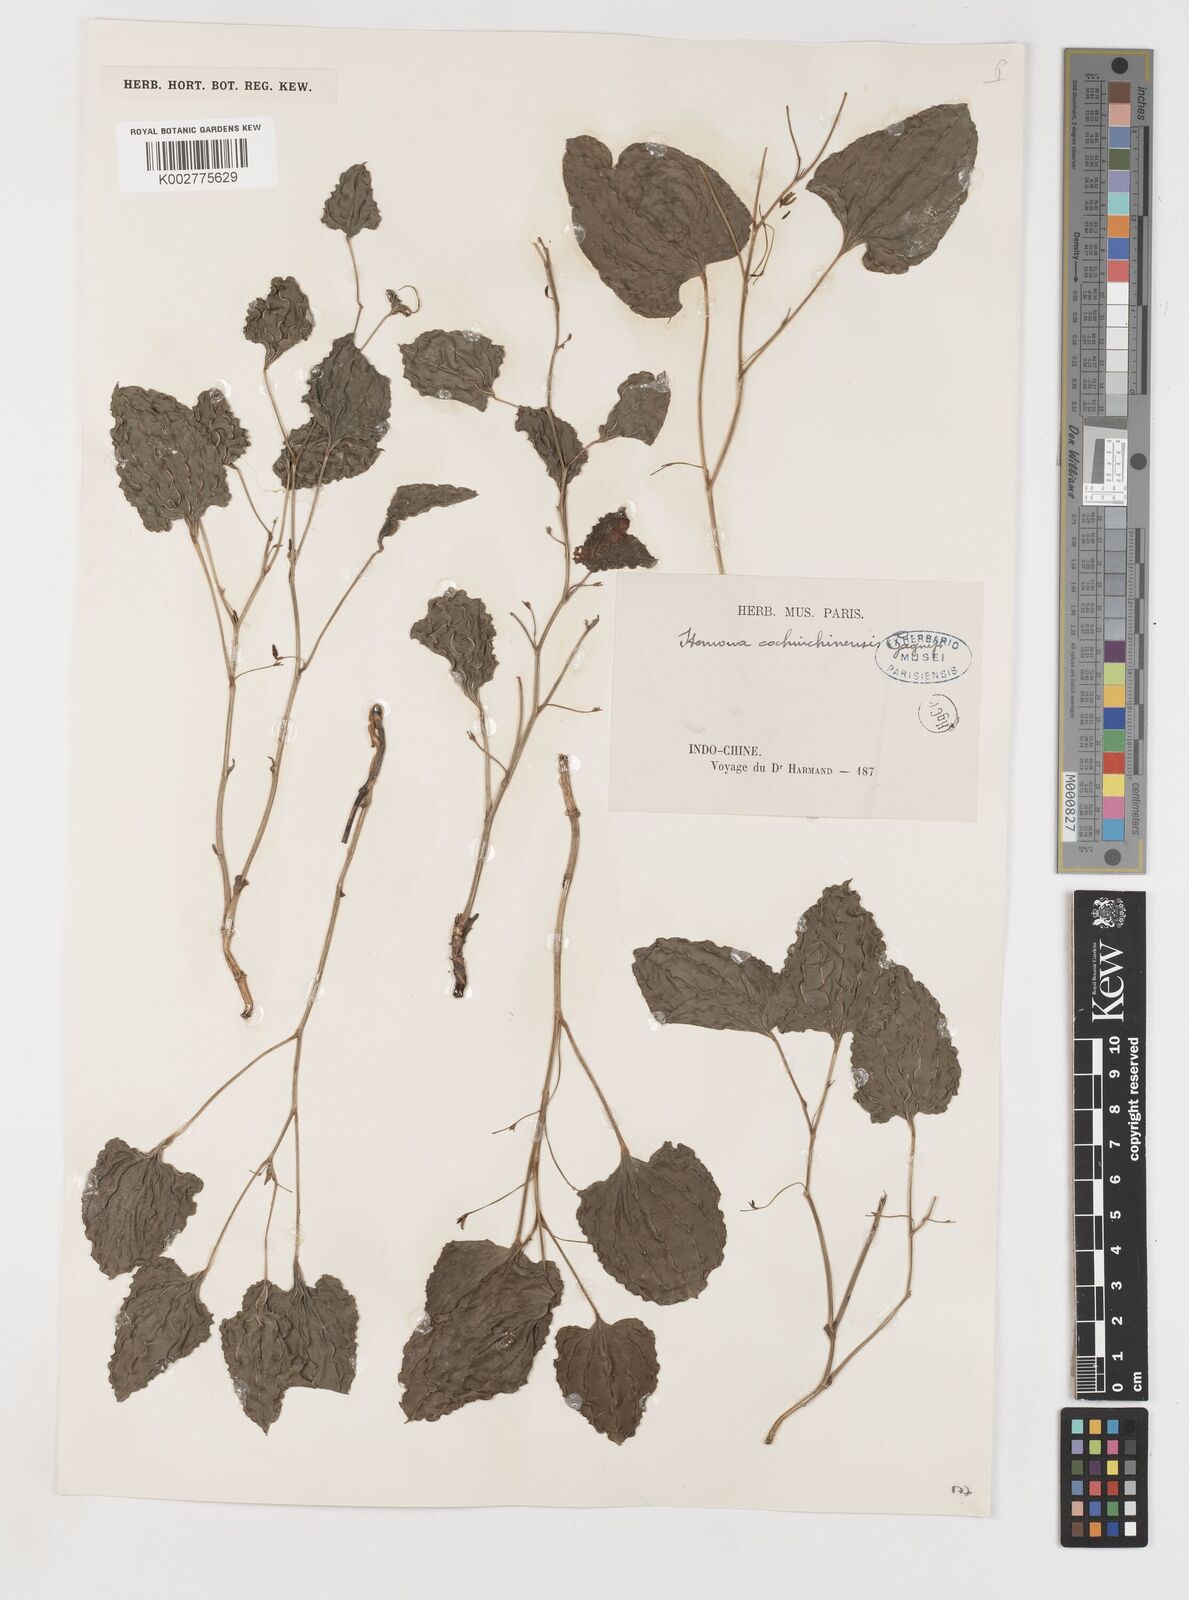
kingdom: Plantae
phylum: Tracheophyta
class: Liliopsida
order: Pandanales
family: Stemonaceae
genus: Stemona
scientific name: Stemona cochinchinensis
